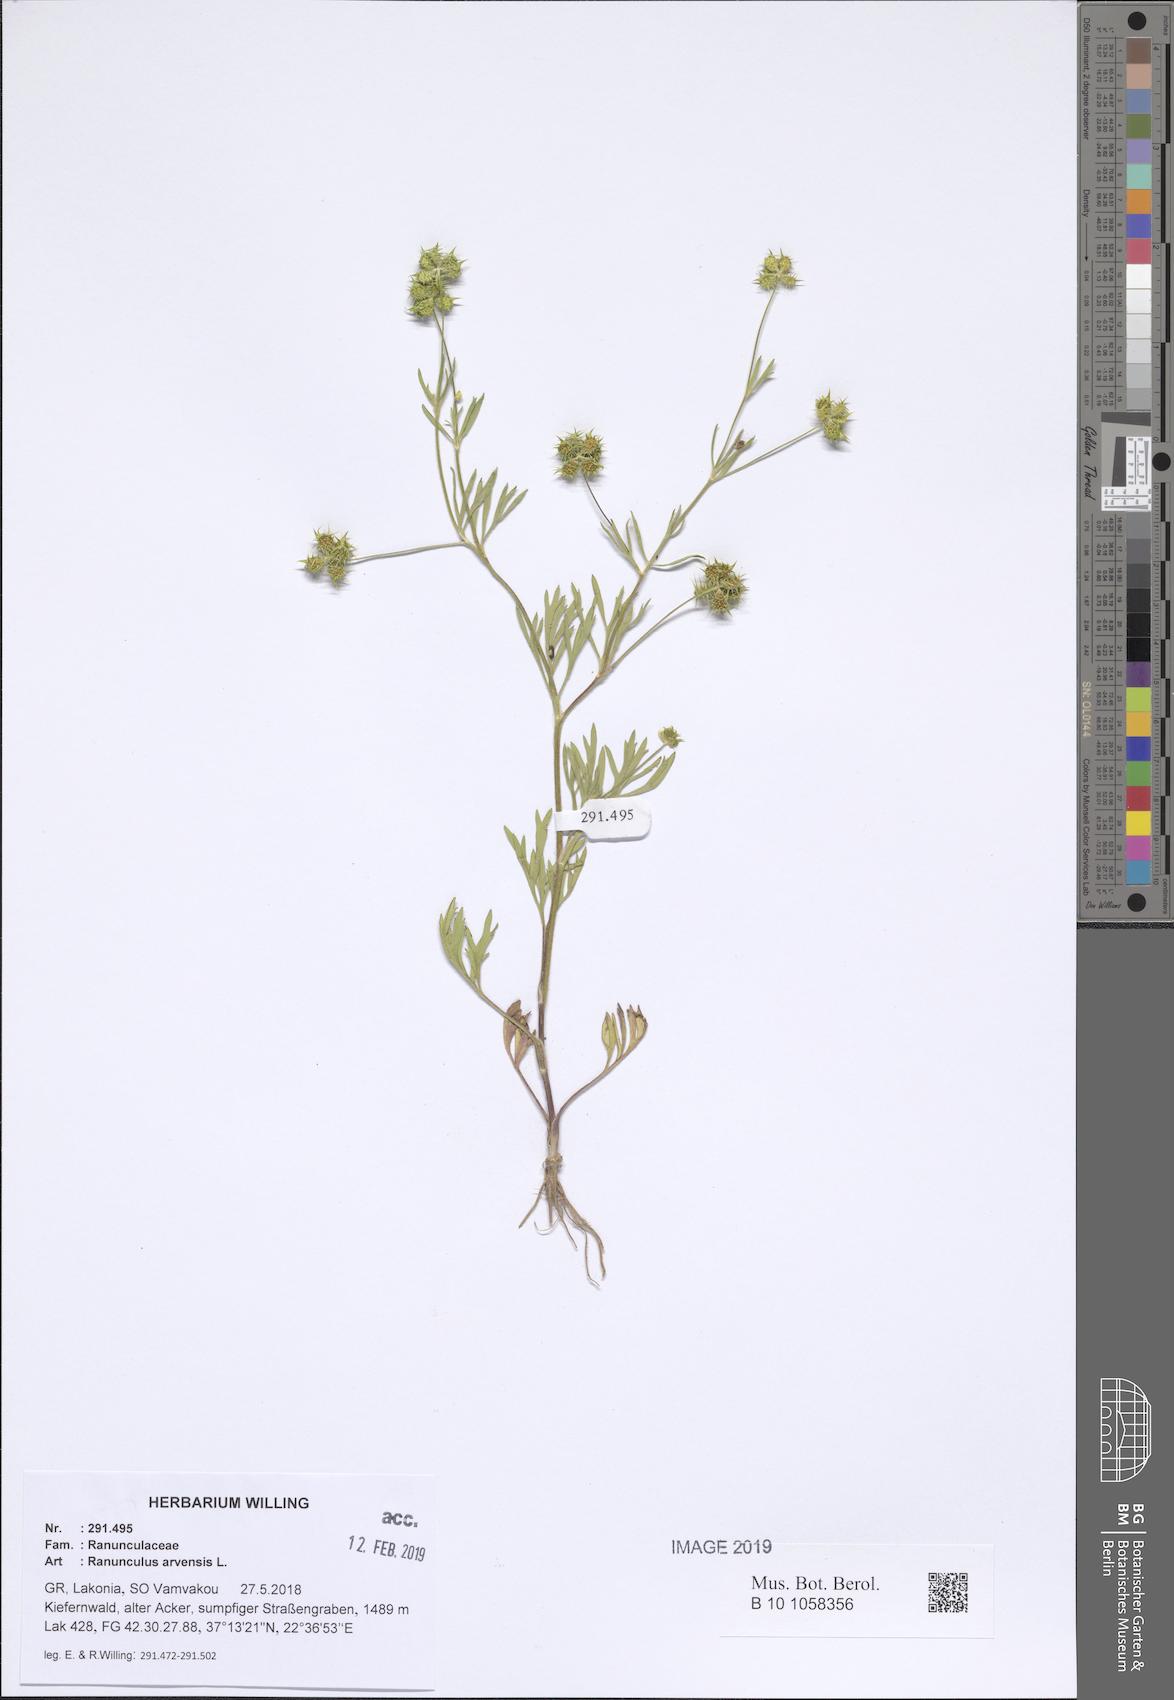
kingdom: Plantae
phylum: Tracheophyta
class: Magnoliopsida
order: Ranunculales
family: Ranunculaceae
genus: Ranunculus
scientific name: Ranunculus arvensis
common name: Corn buttercup
